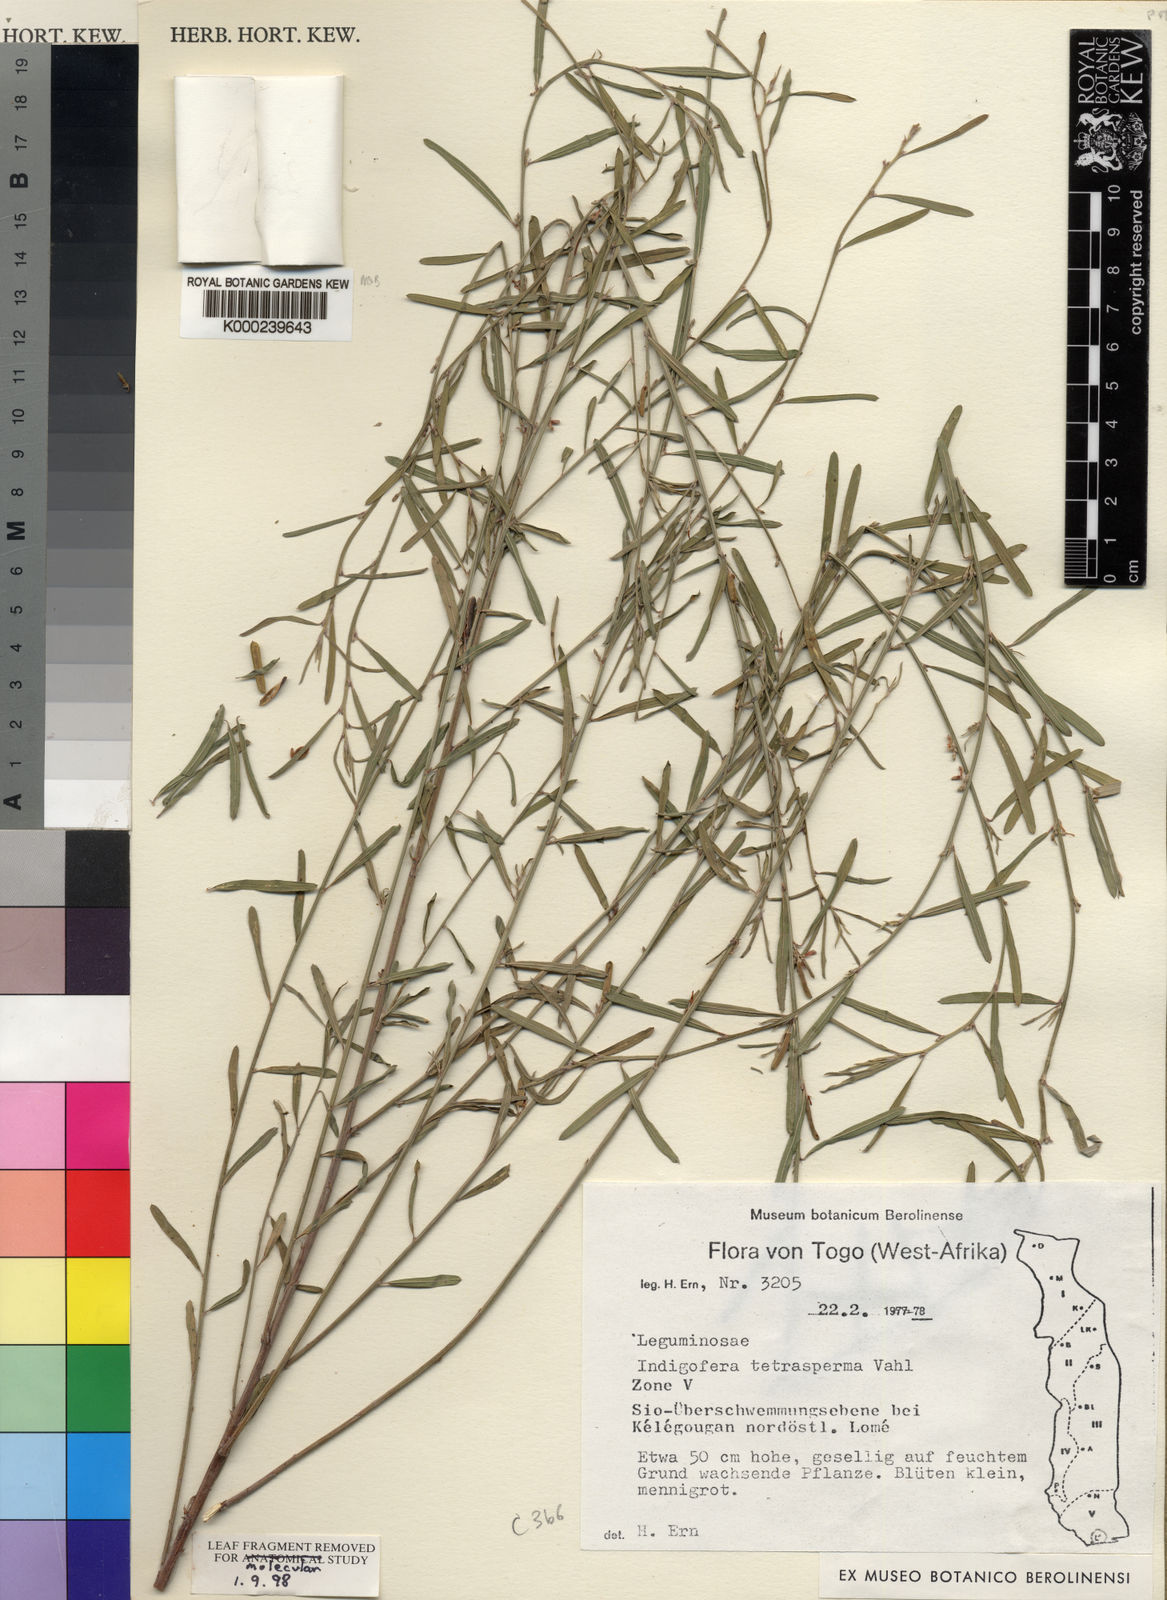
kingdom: Plantae
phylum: Tracheophyta
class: Magnoliopsida
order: Fabales
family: Fabaceae
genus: Indigofera
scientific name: Indigofera tetrasperma
